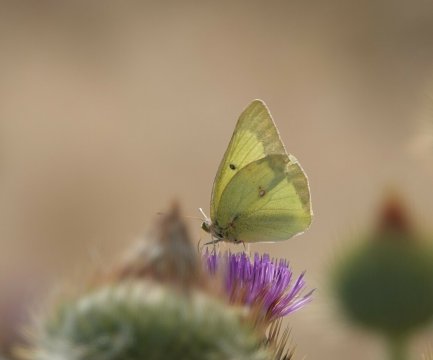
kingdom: Animalia
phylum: Arthropoda
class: Insecta
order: Lepidoptera
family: Pieridae
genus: Colias
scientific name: Colias philodice
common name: Clouded Sulphur
